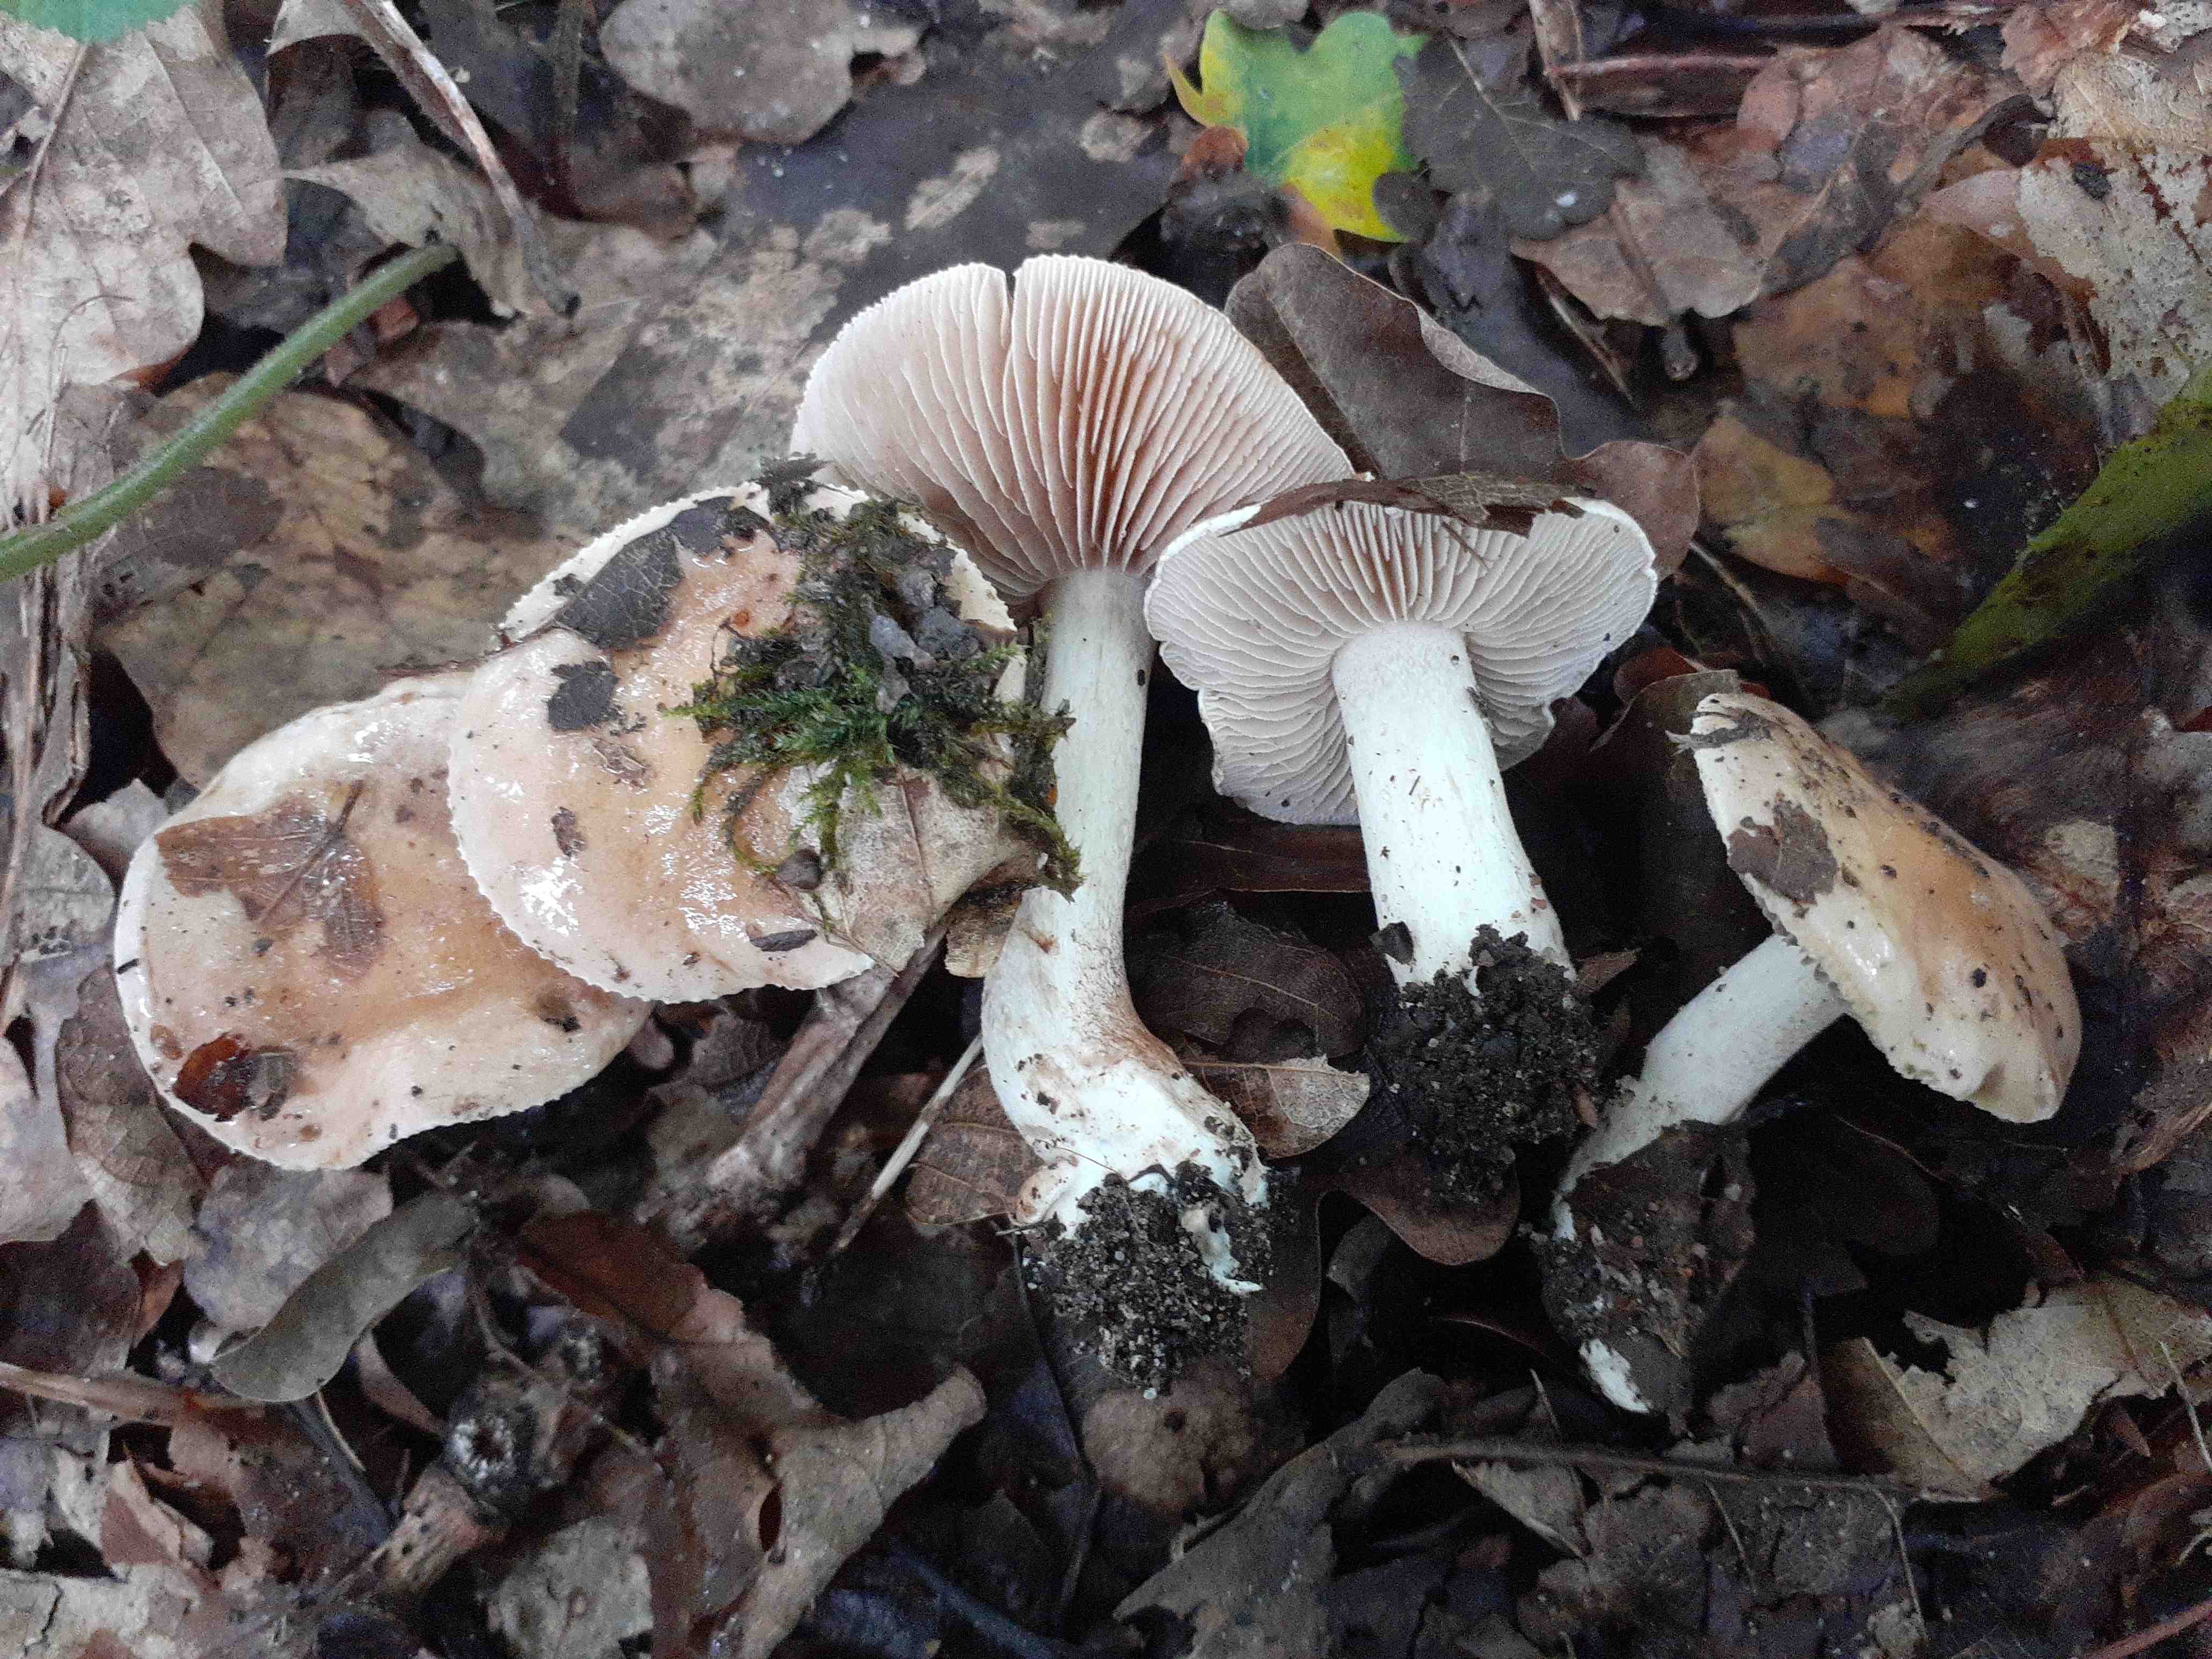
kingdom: Fungi
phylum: Basidiomycota
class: Agaricomycetes
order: Agaricales
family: Hymenogastraceae
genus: Hebeloma
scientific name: Hebeloma aestivale
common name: sommer-tåreblad
